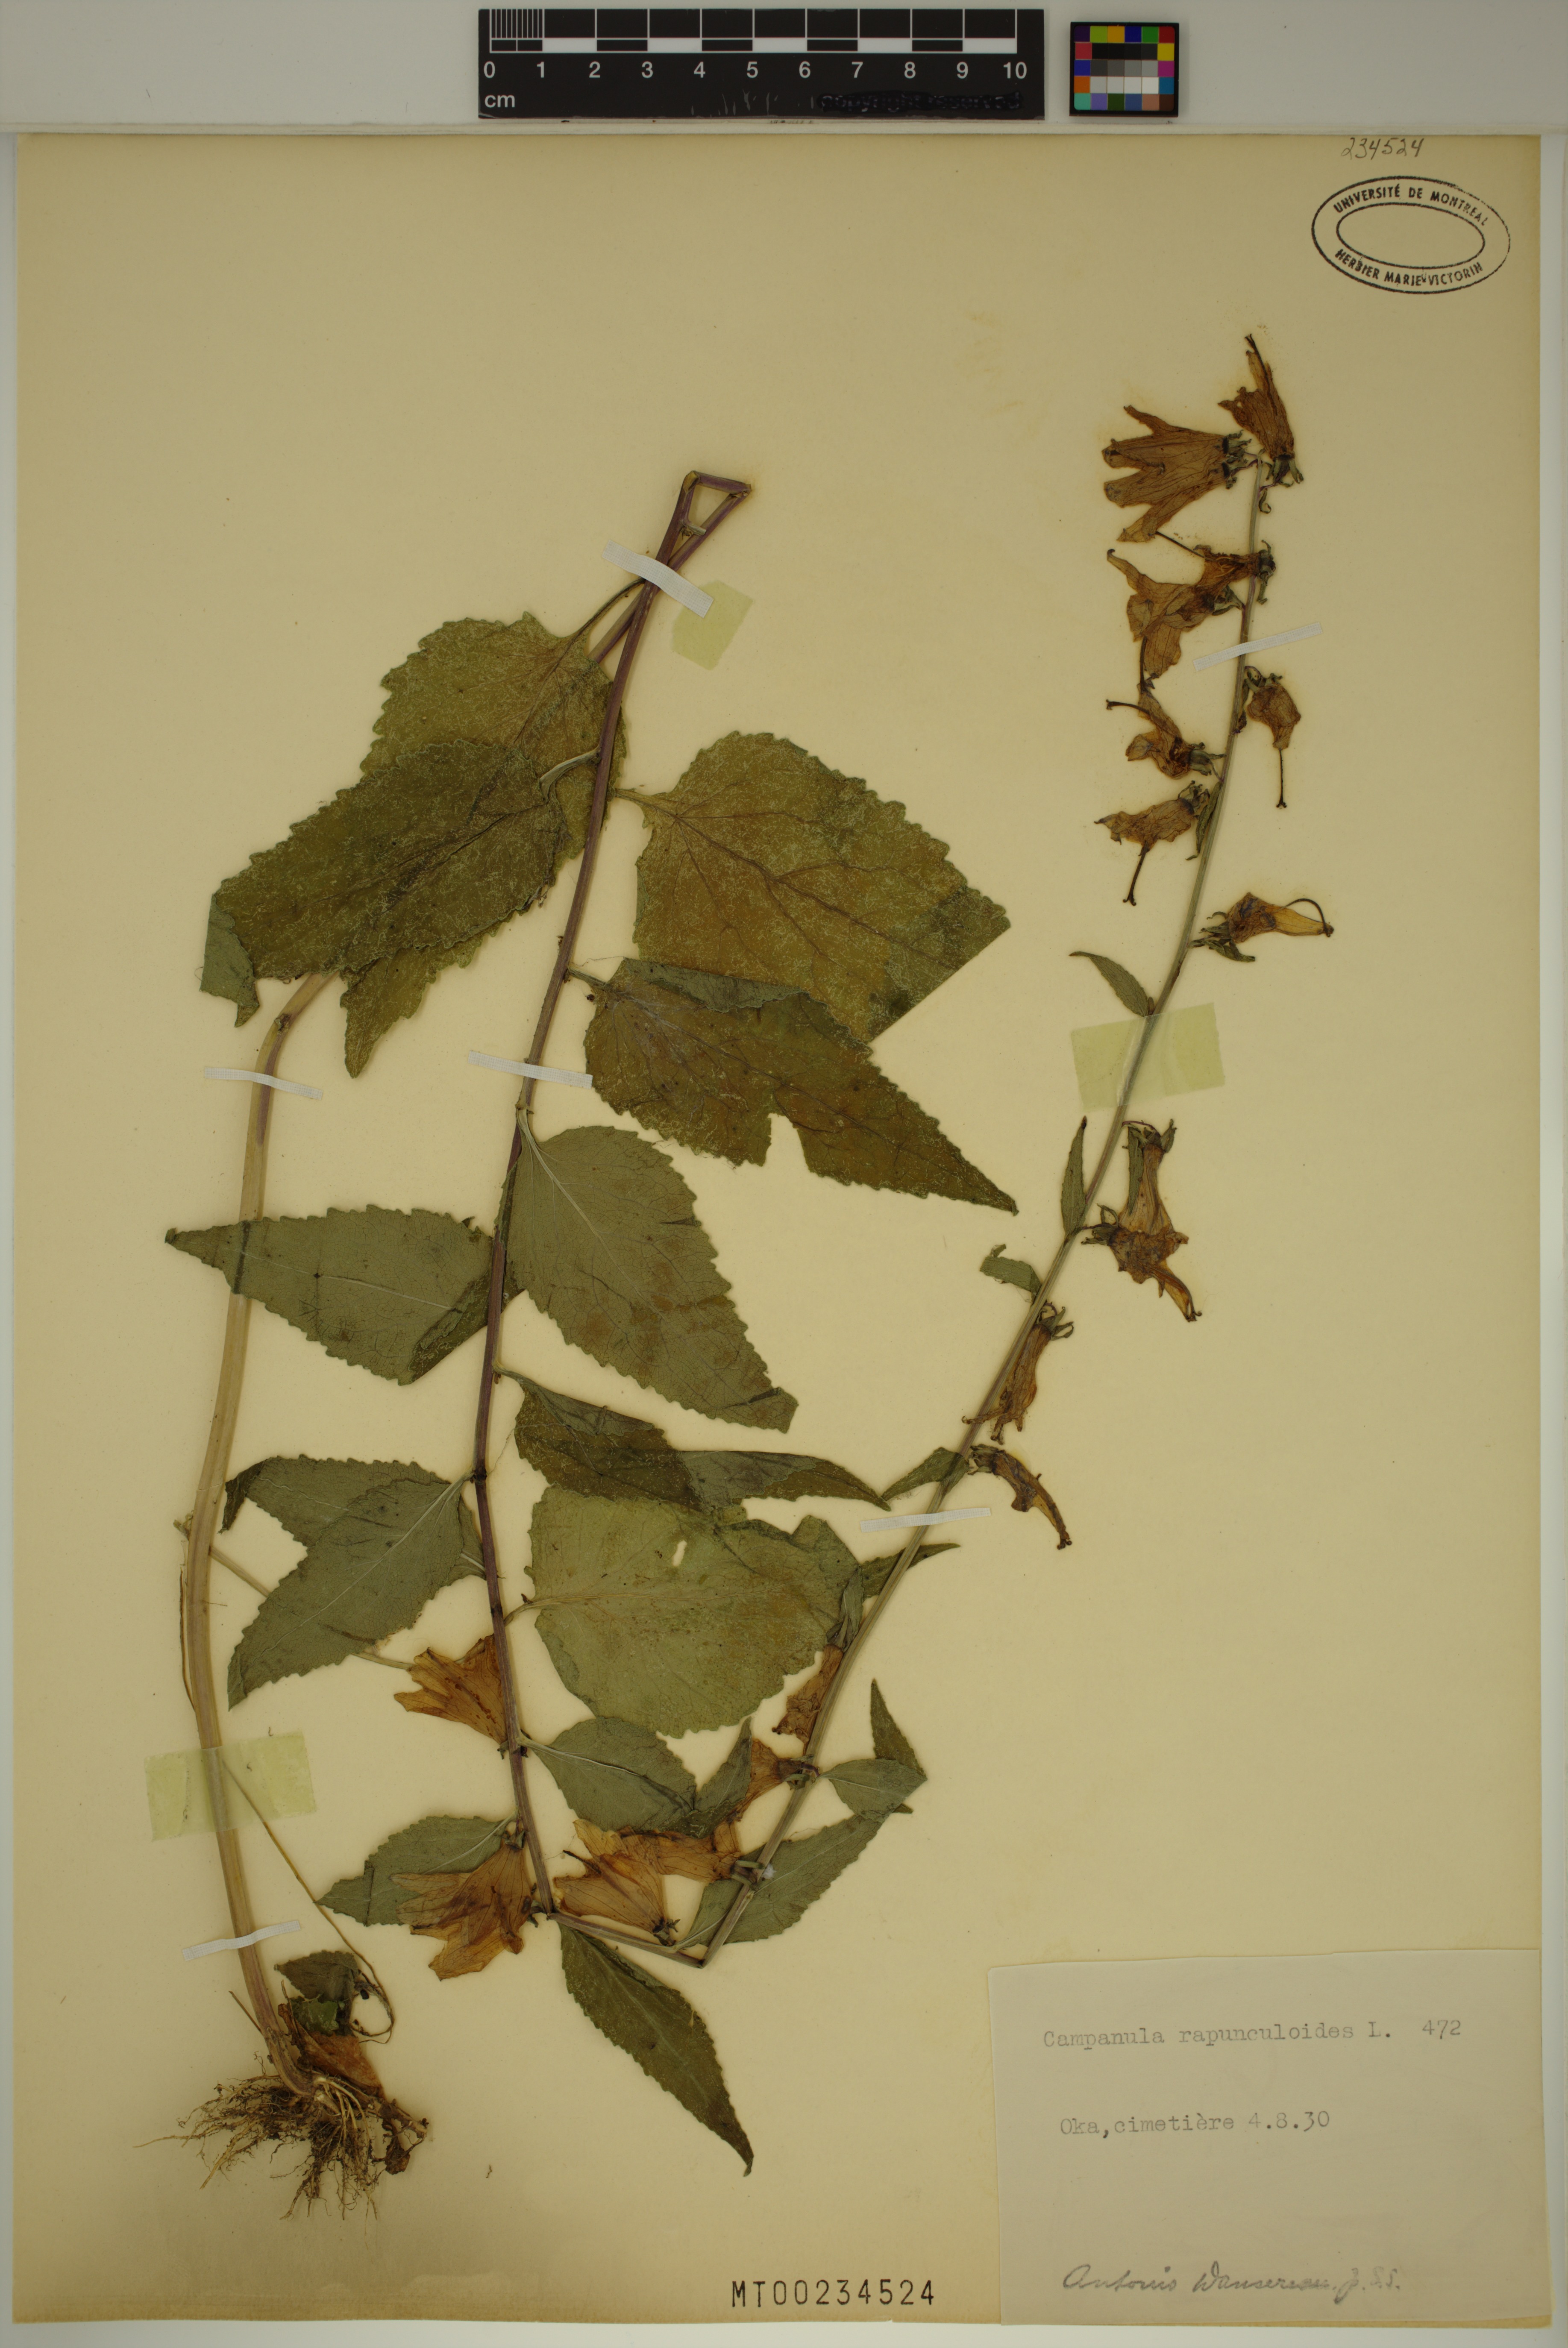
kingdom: Plantae
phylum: Tracheophyta
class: Magnoliopsida
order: Asterales
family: Campanulaceae
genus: Campanula
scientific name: Campanula rapunculoides
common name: Creeping bellflower
